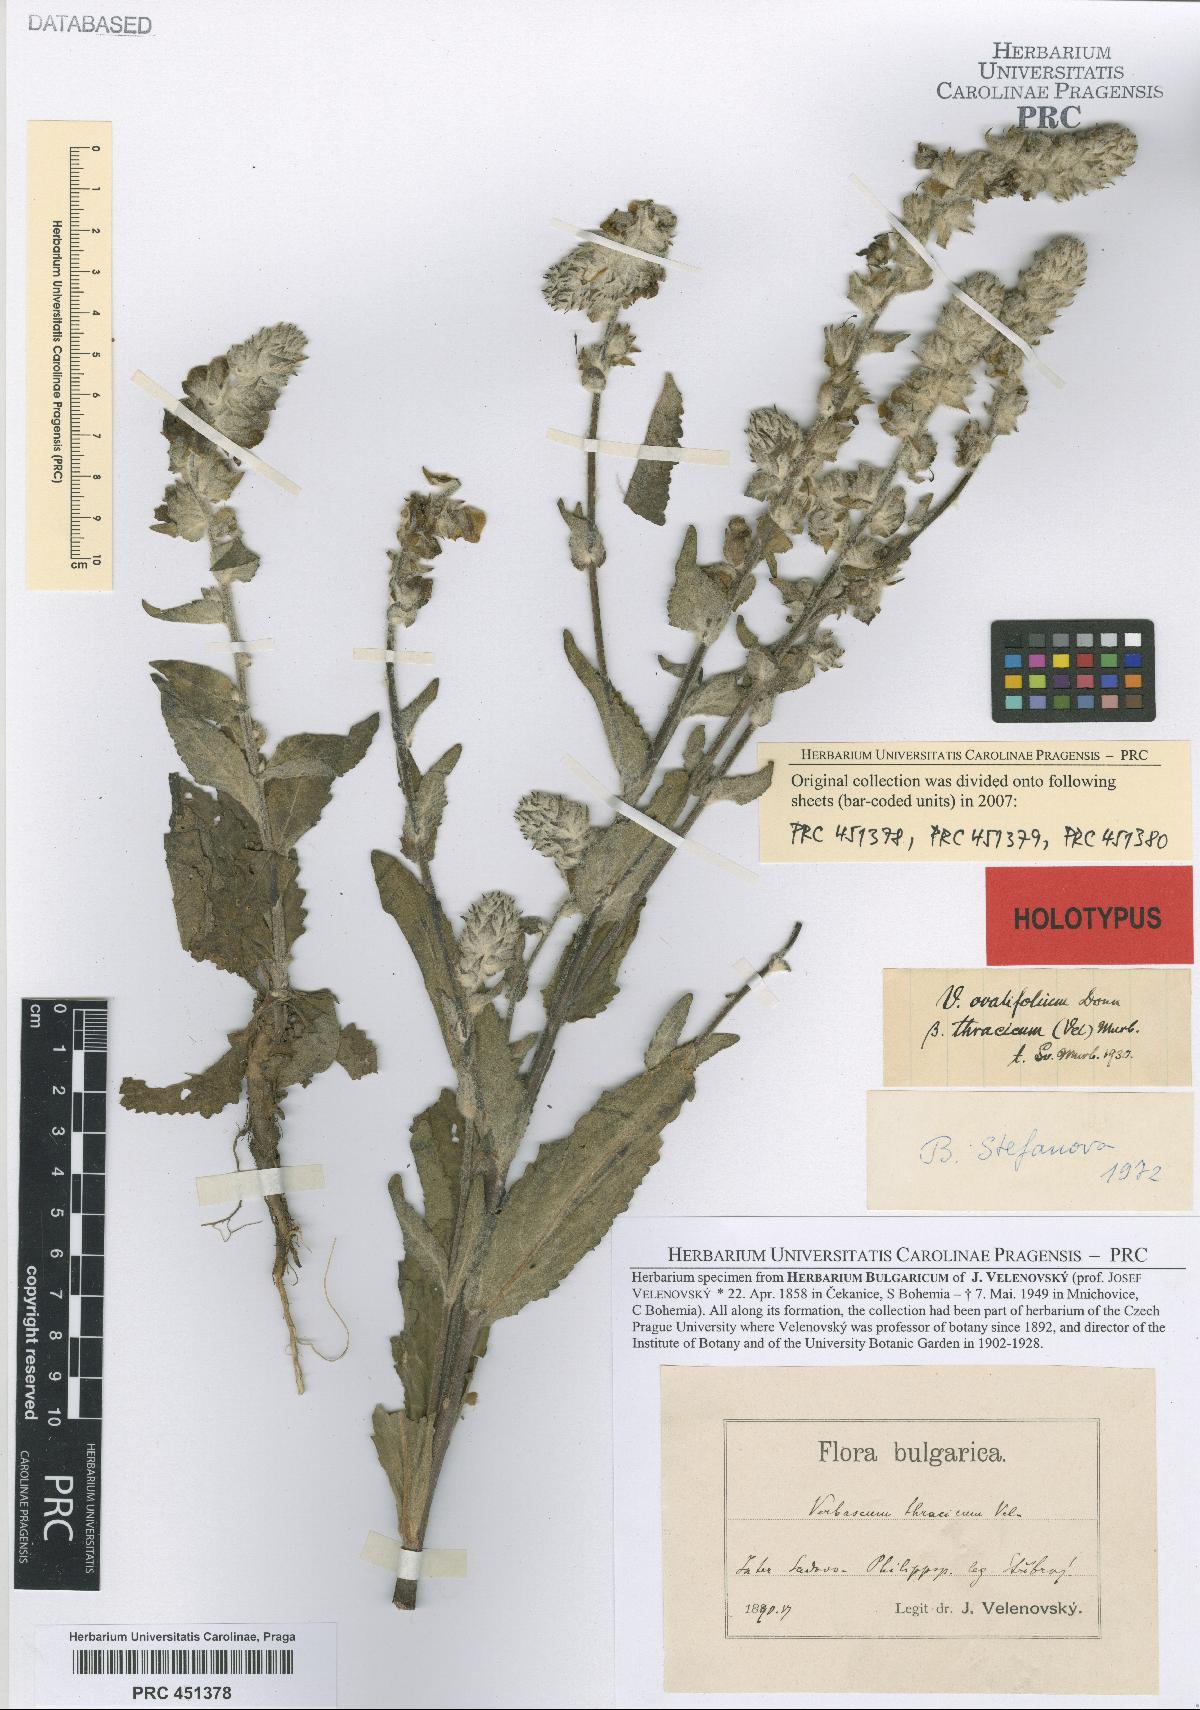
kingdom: Plantae
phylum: Tracheophyta
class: Magnoliopsida
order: Lamiales
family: Scrophulariaceae
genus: Verbascum
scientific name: Verbascum ovalifolium
